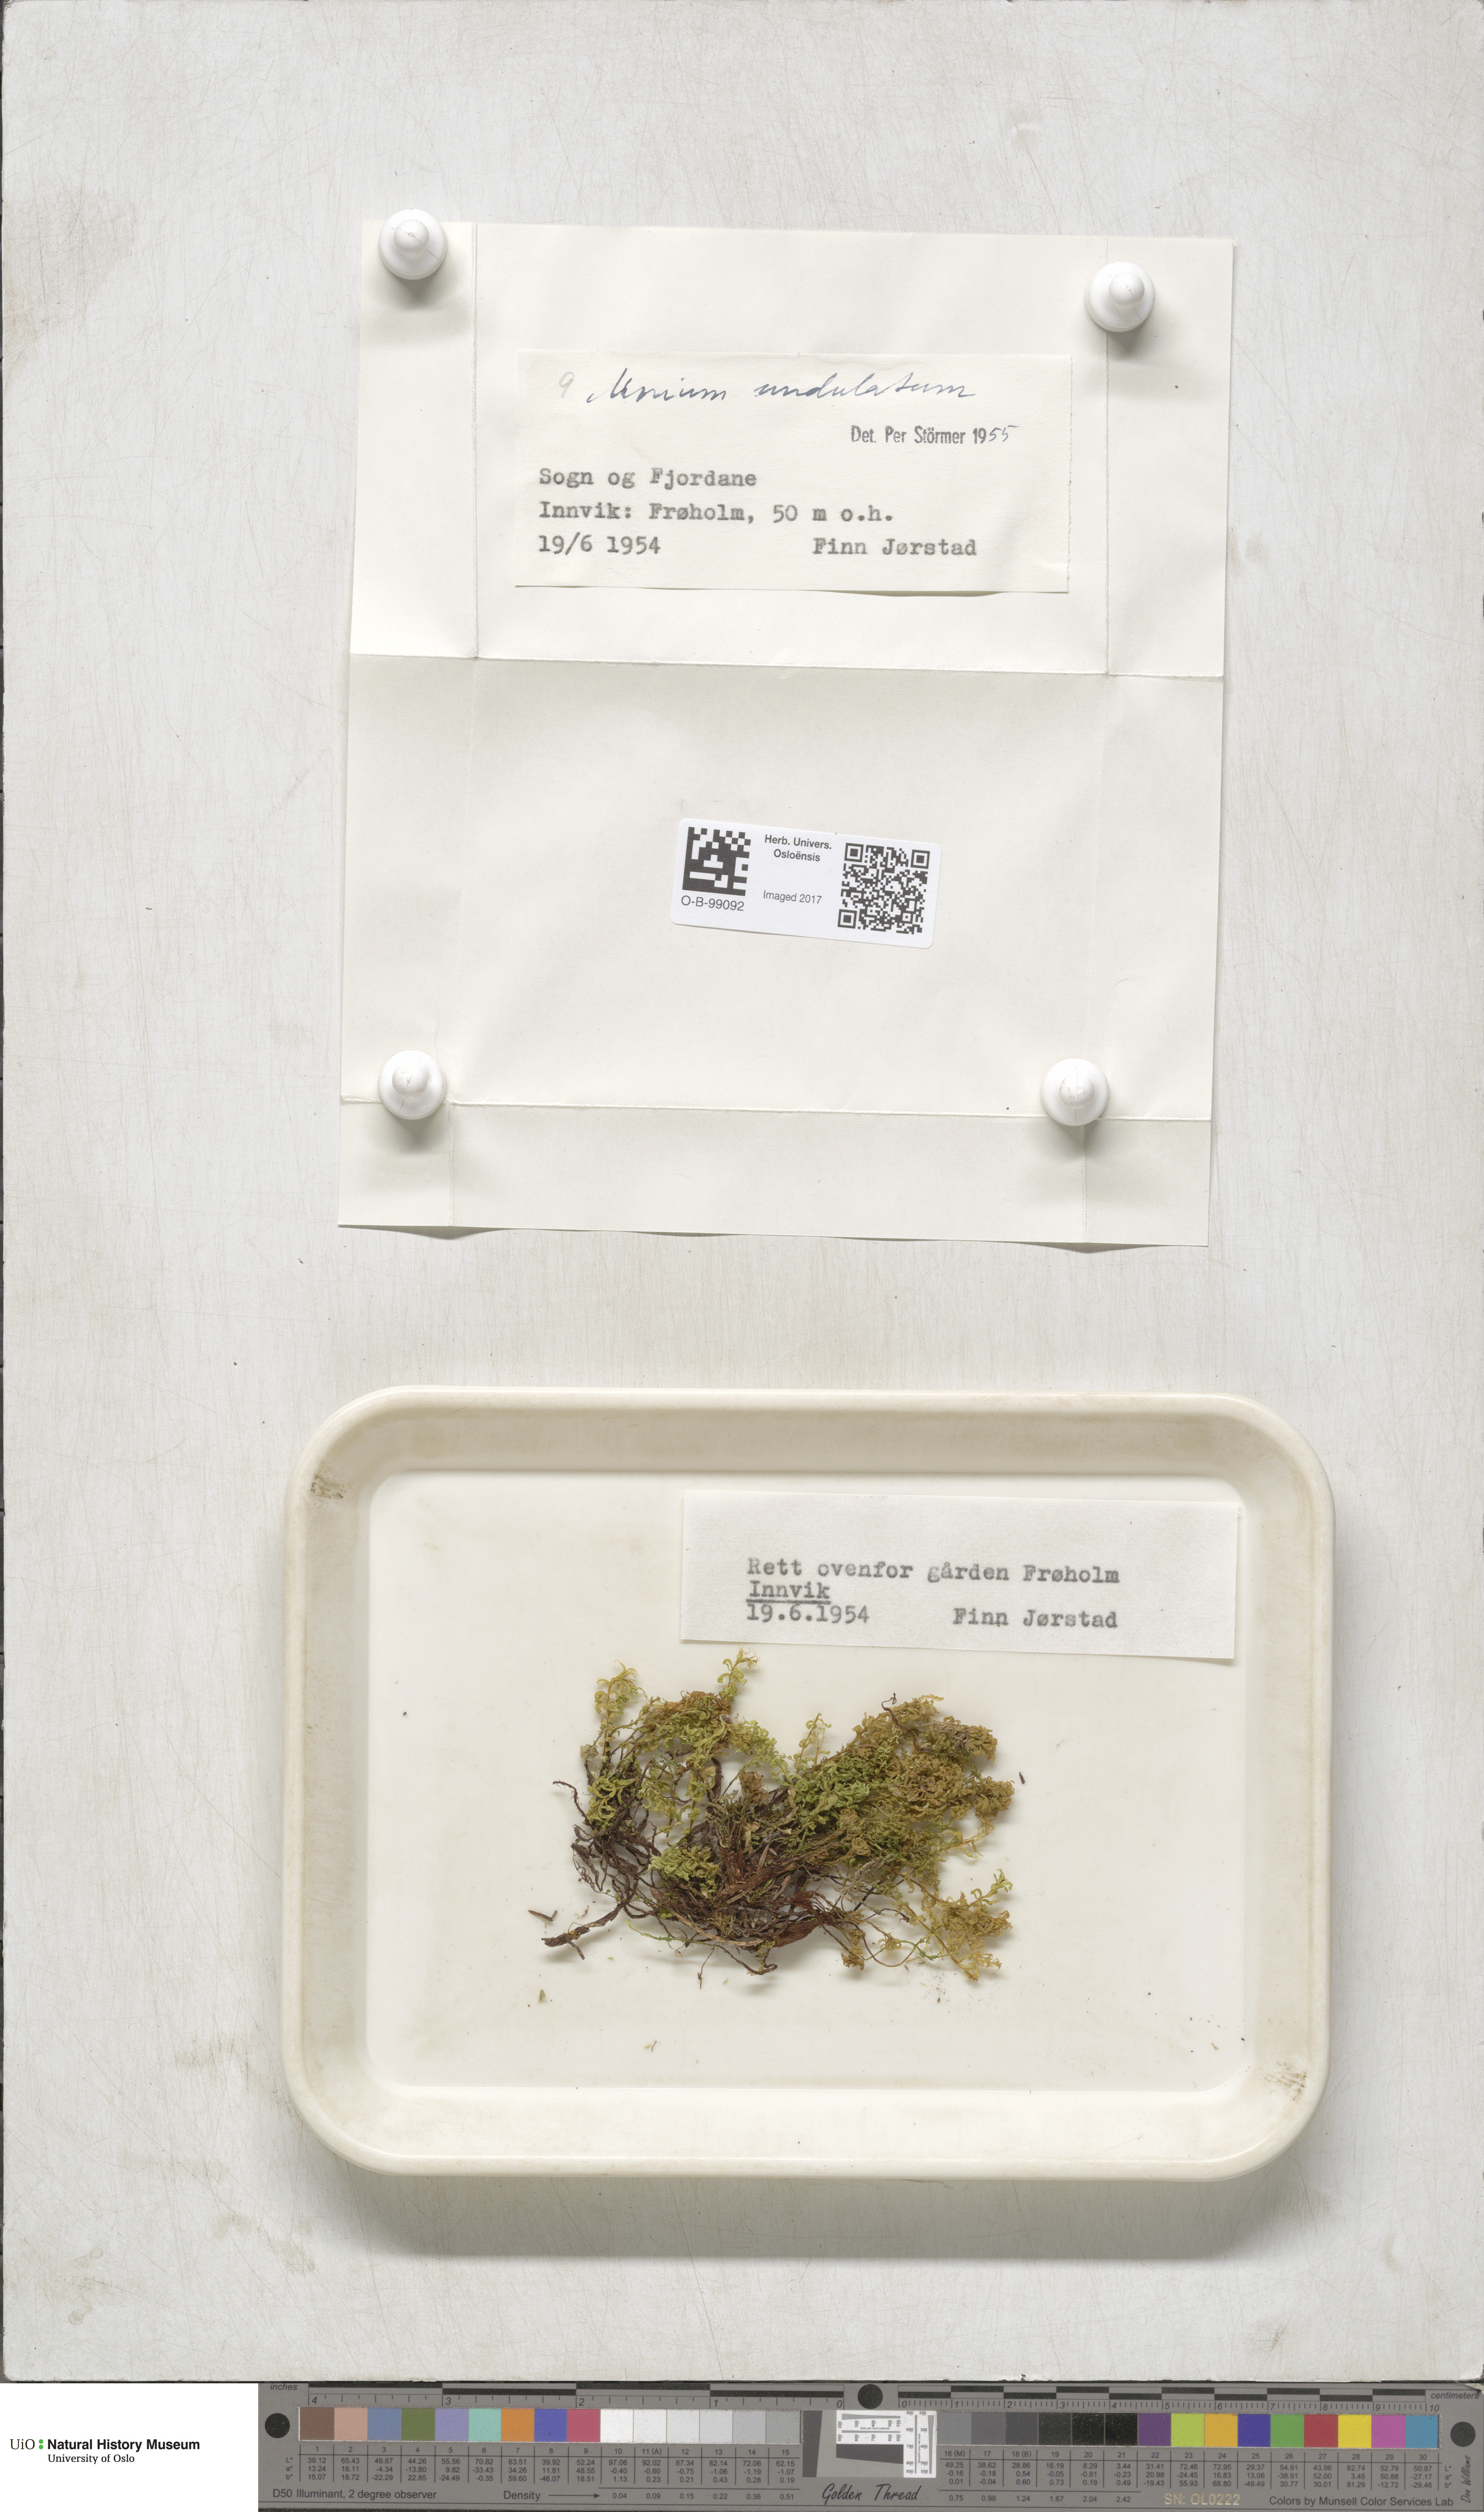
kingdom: Plantae
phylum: Bryophyta
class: Bryopsida
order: Bryales
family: Mniaceae
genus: Plagiomnium
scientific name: Plagiomnium undulatum
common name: Hart's-tongue thyme-moss
